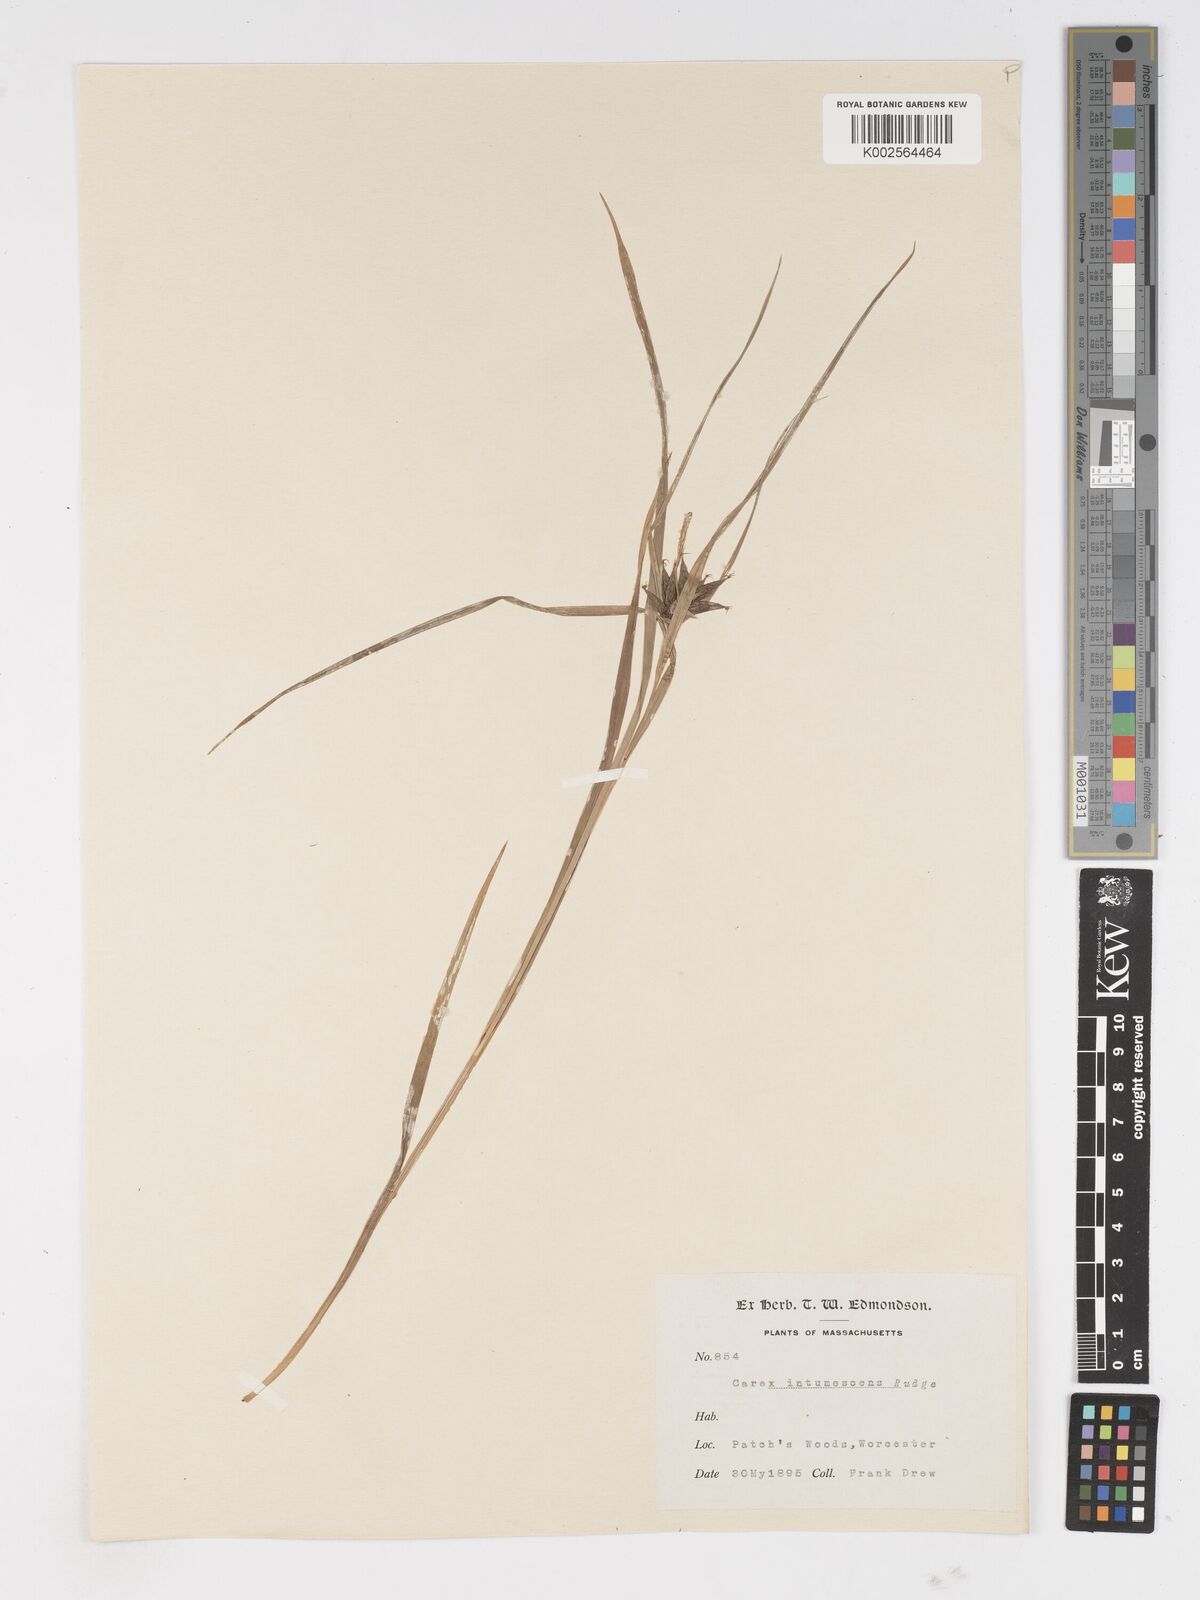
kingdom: Plantae
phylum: Tracheophyta
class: Liliopsida
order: Poales
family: Cyperaceae
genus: Carex
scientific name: Carex intumescens
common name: Greater bladder sedge
